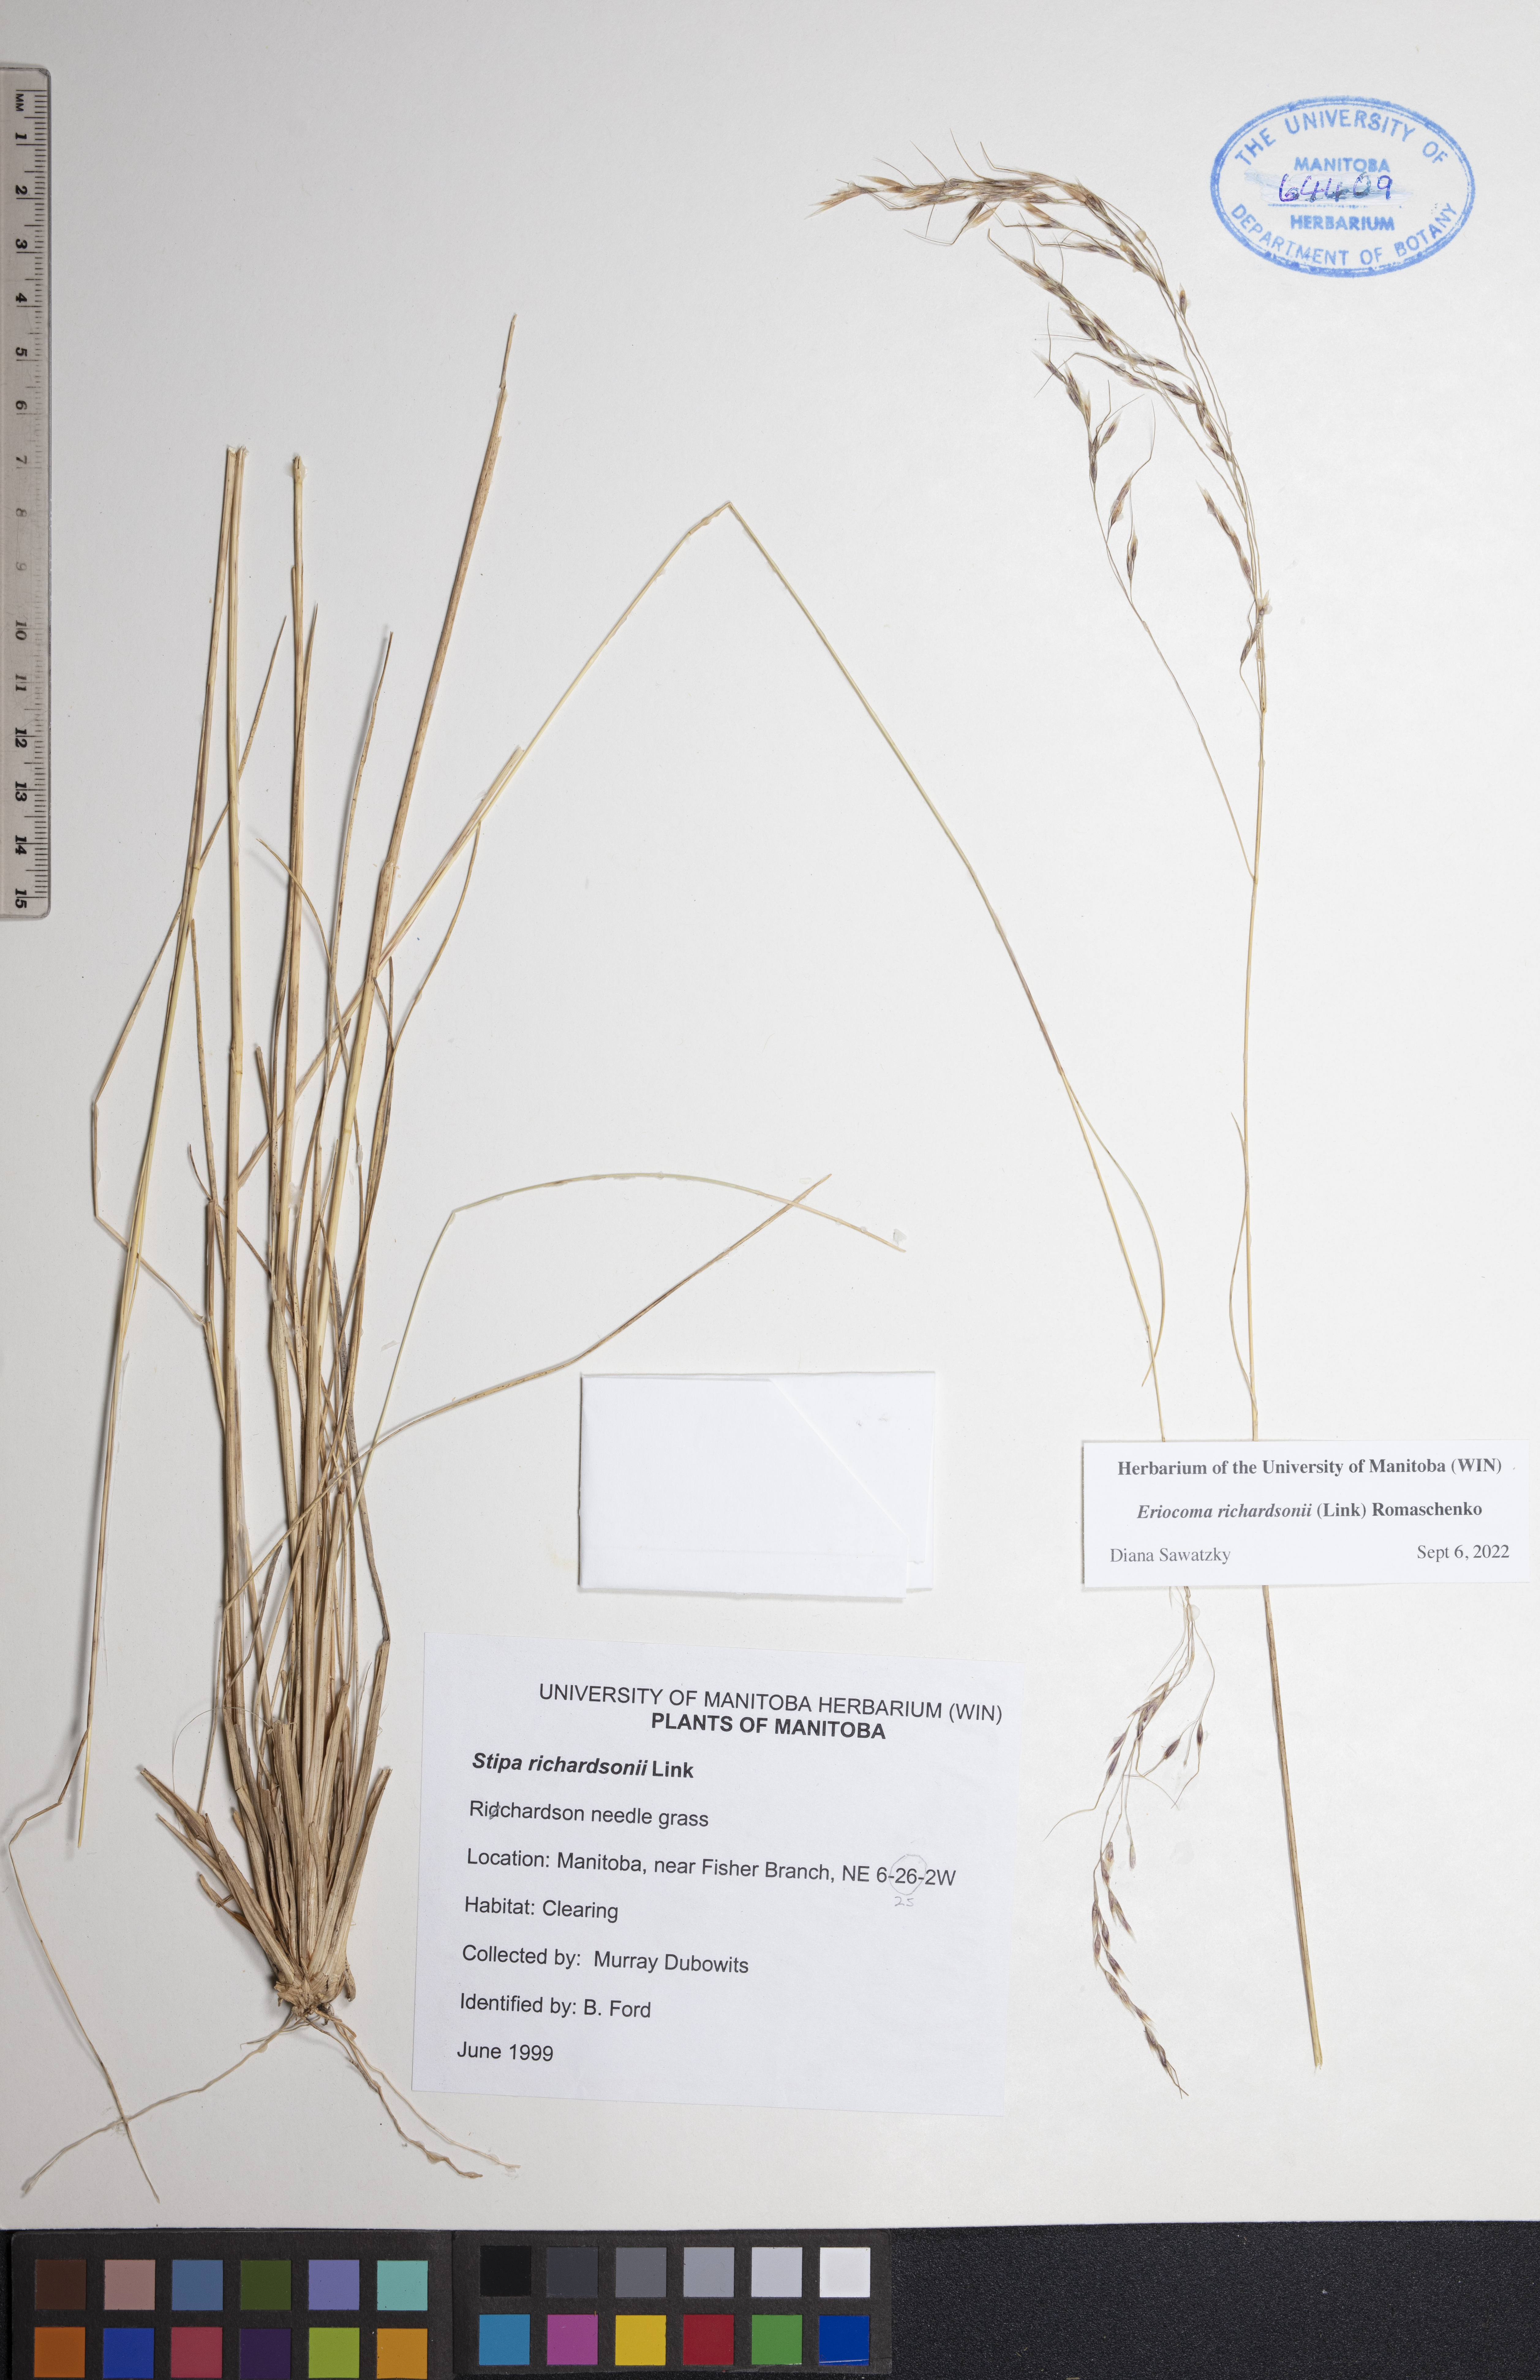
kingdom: Plantae
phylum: Tracheophyta
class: Liliopsida
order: Poales
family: Poaceae
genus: Eriocoma
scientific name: Eriocoma richardsonii
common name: Richardson's needlegrass
